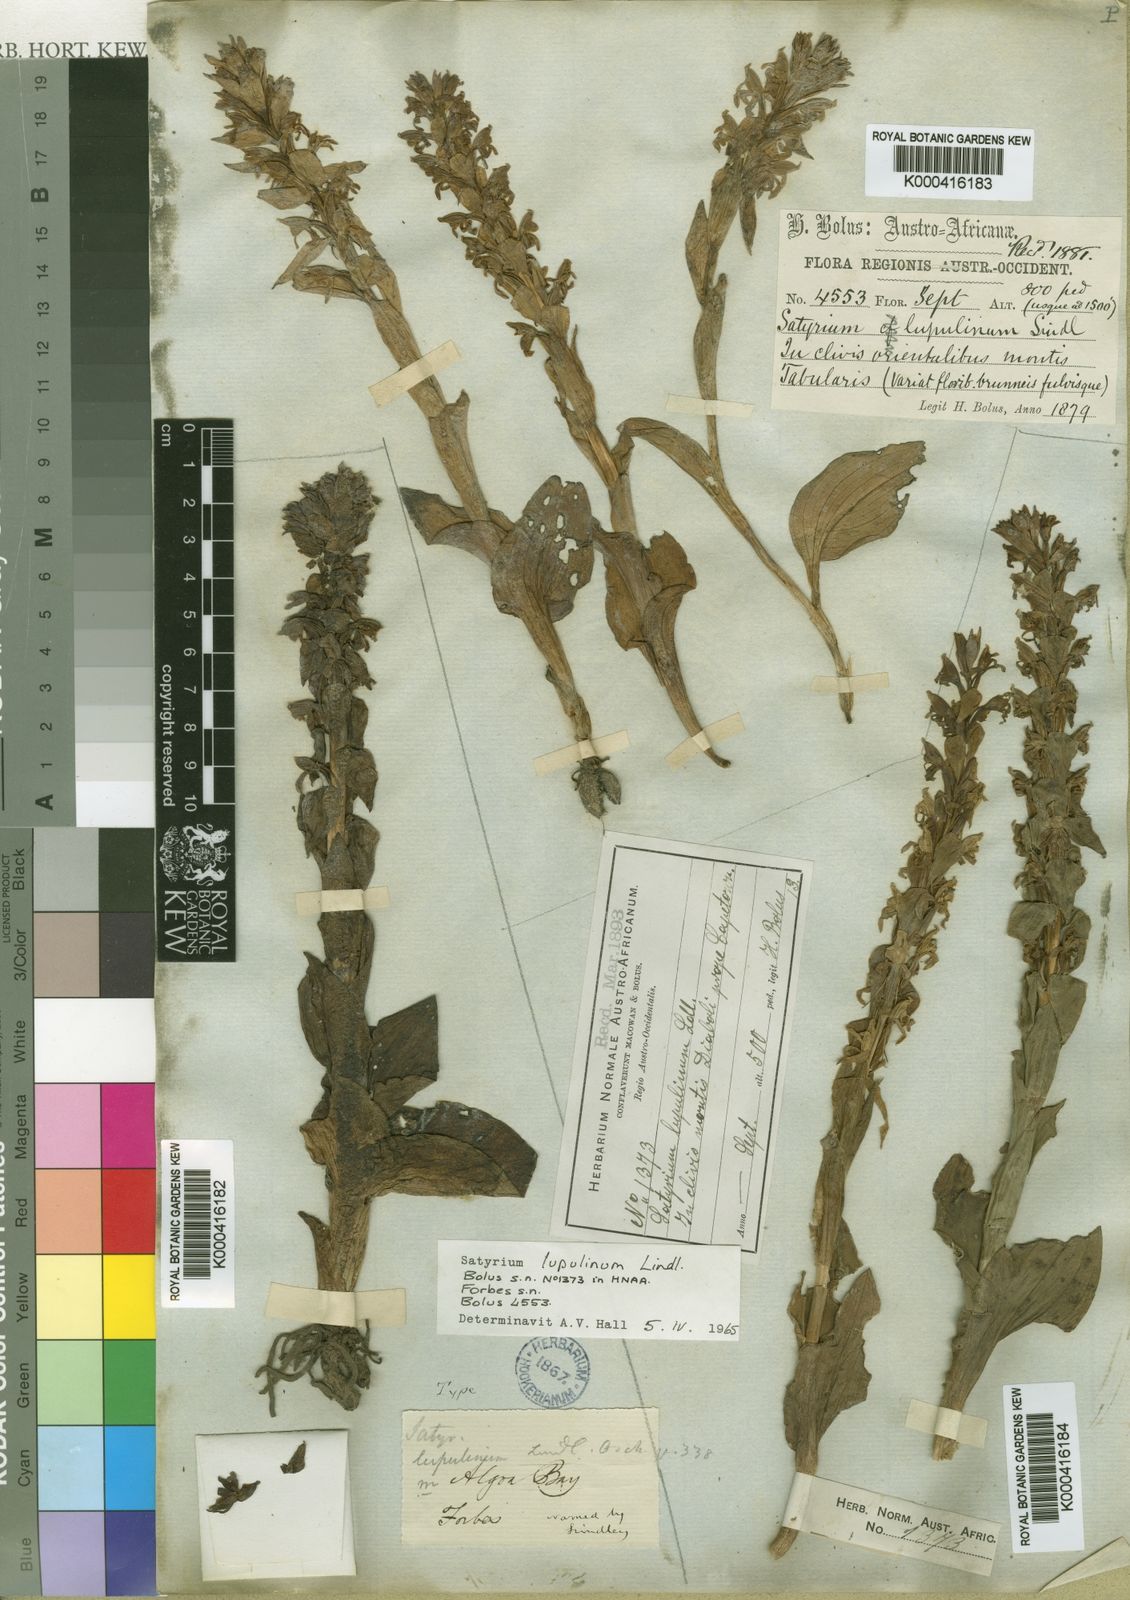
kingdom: Plantae
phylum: Tracheophyta
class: Liliopsida
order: Asparagales
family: Orchidaceae
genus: Satyrium
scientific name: Satyrium lupulinum
